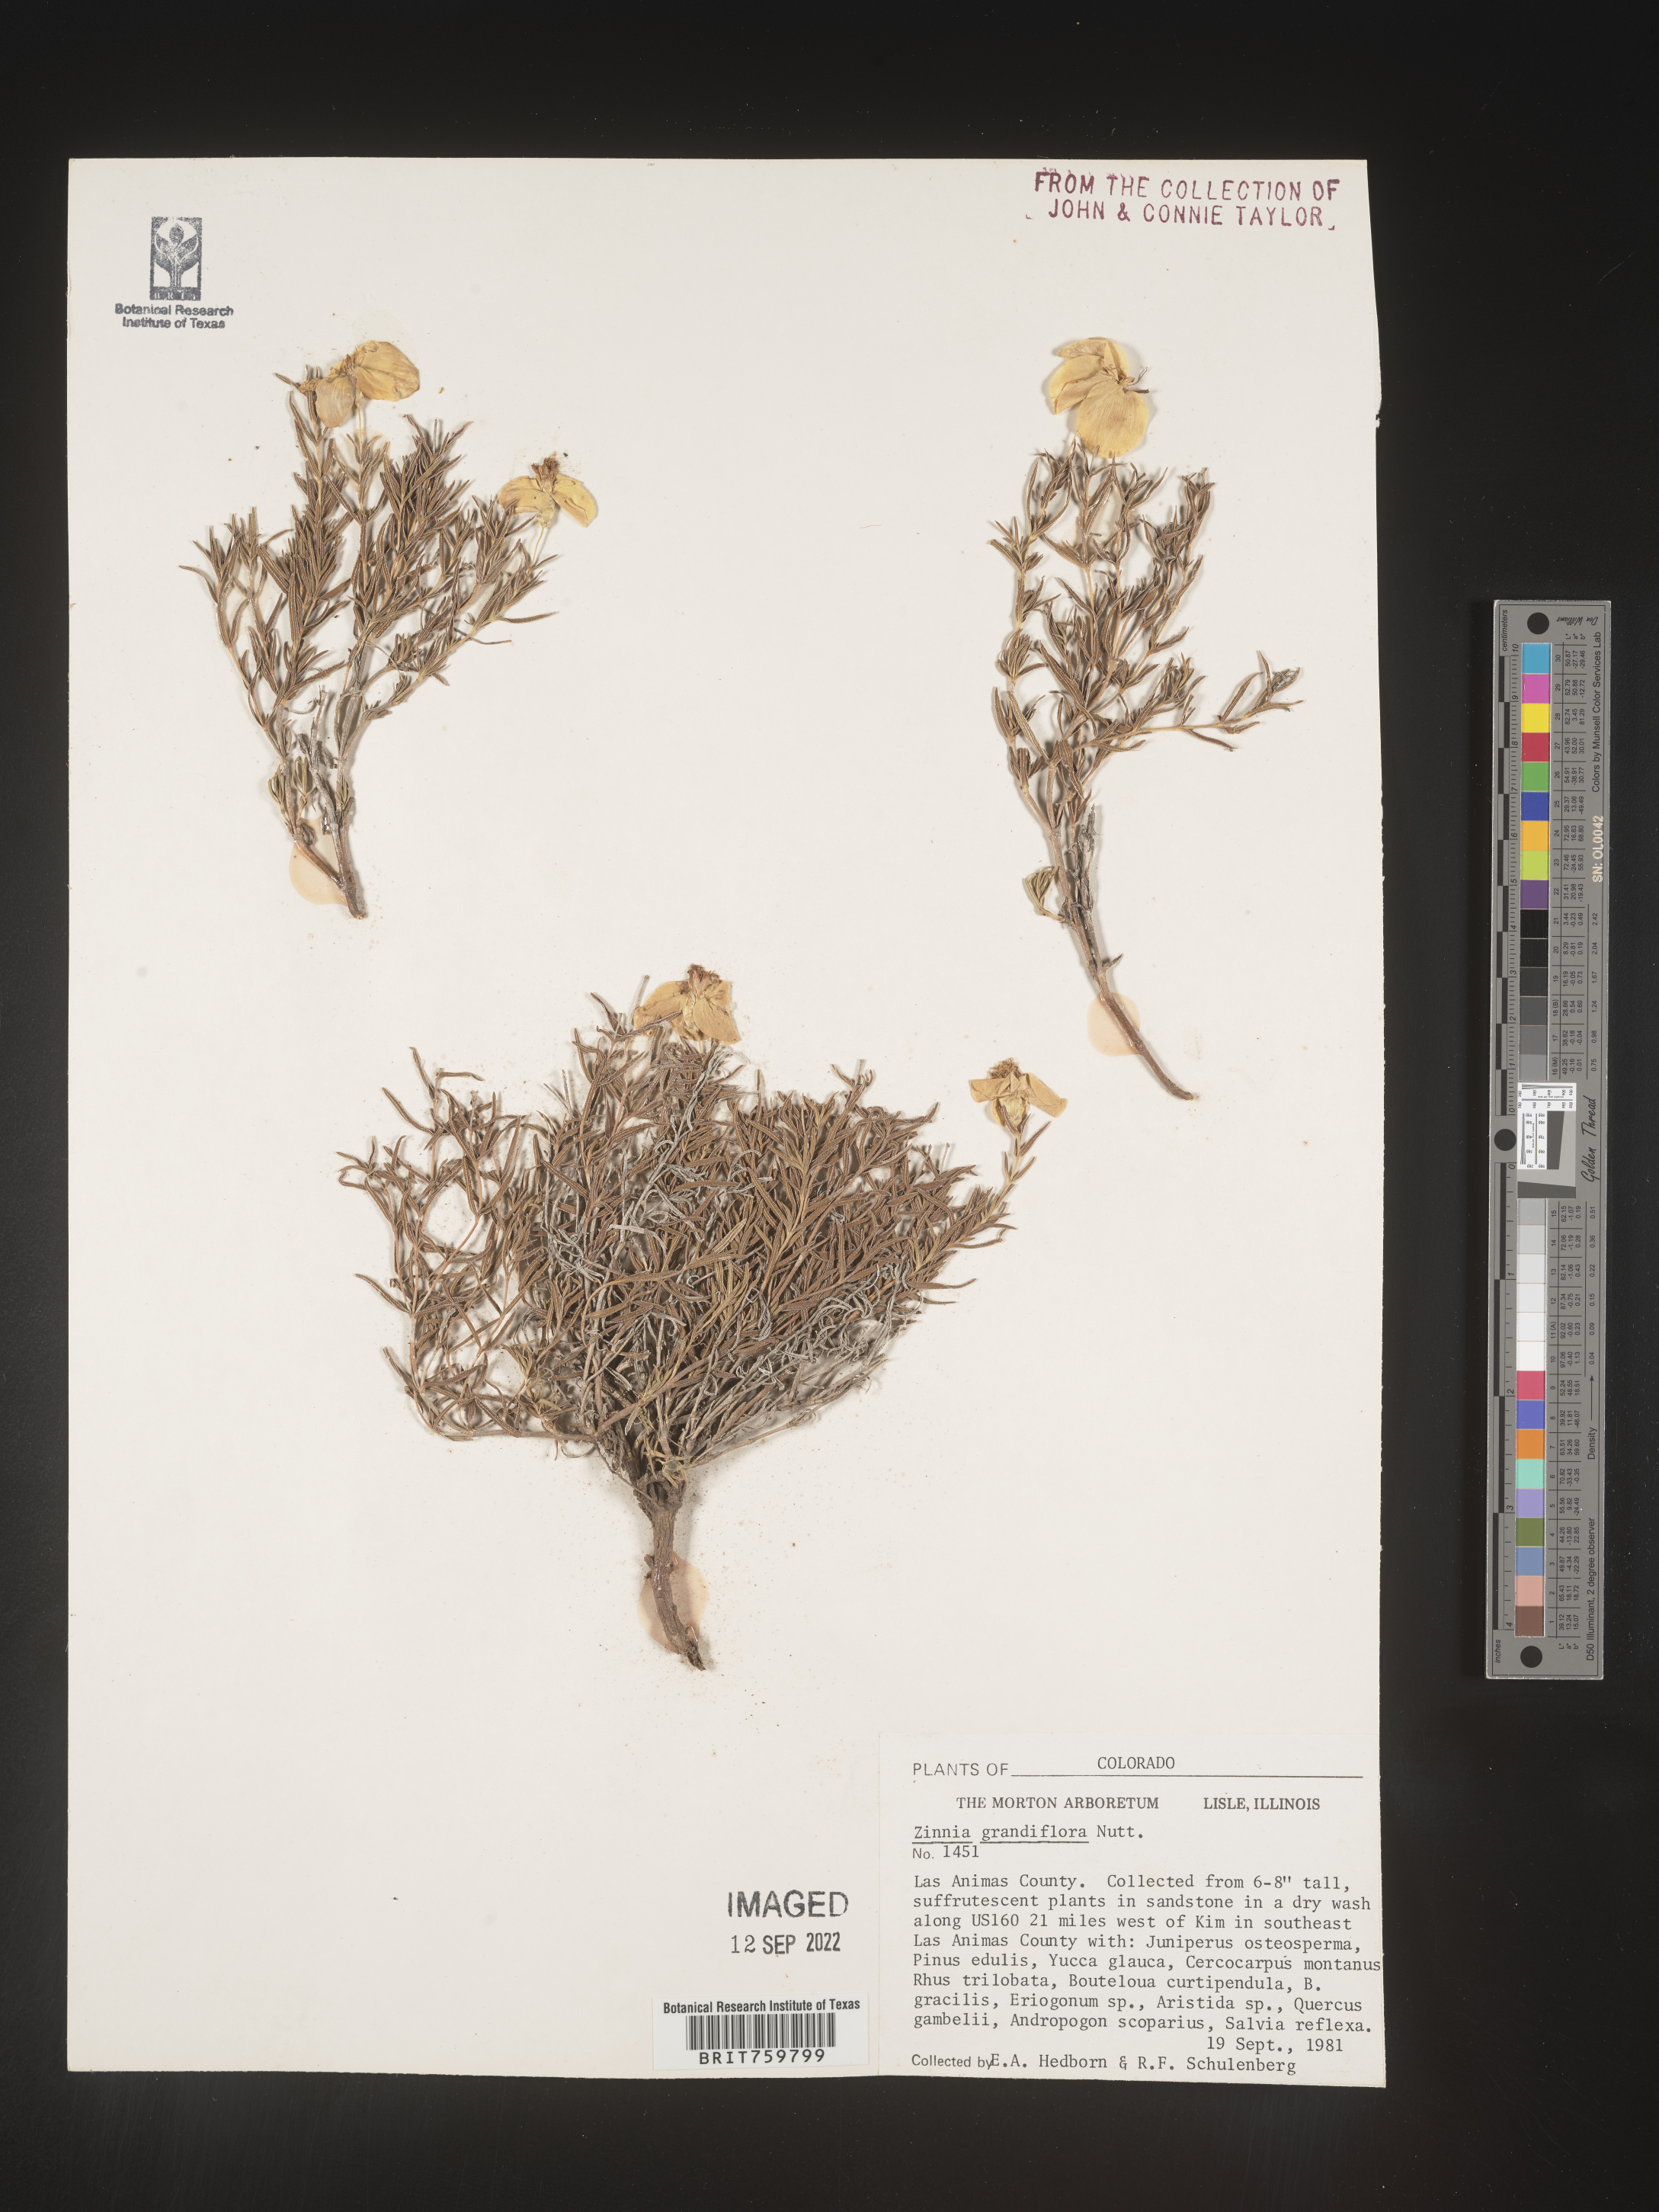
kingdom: Plantae
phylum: Tracheophyta
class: Magnoliopsida
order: Asterales
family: Asteraceae
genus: Zinnia
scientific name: Zinnia grandiflora
